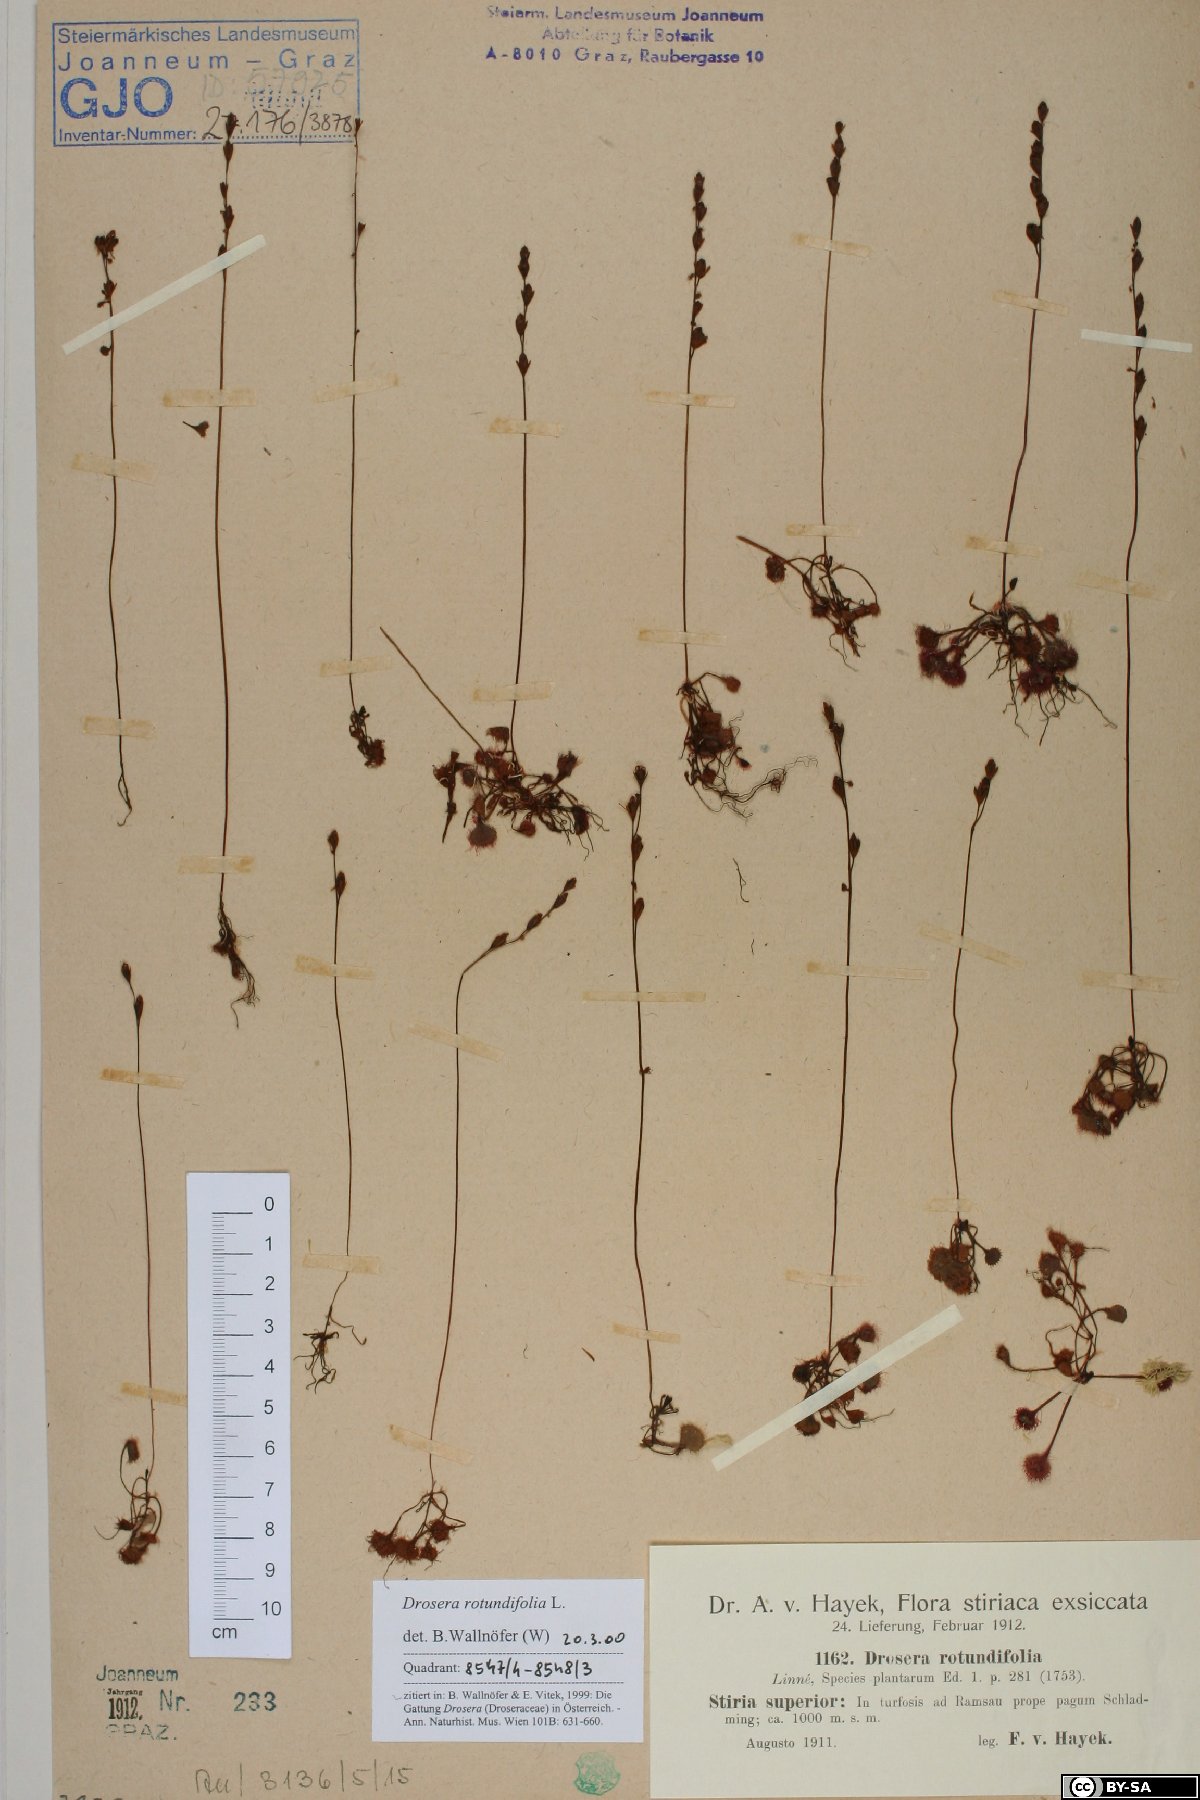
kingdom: Plantae
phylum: Tracheophyta
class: Magnoliopsida
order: Caryophyllales
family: Droseraceae
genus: Drosera
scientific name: Drosera rotundifolia
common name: Round-leaved sundew
